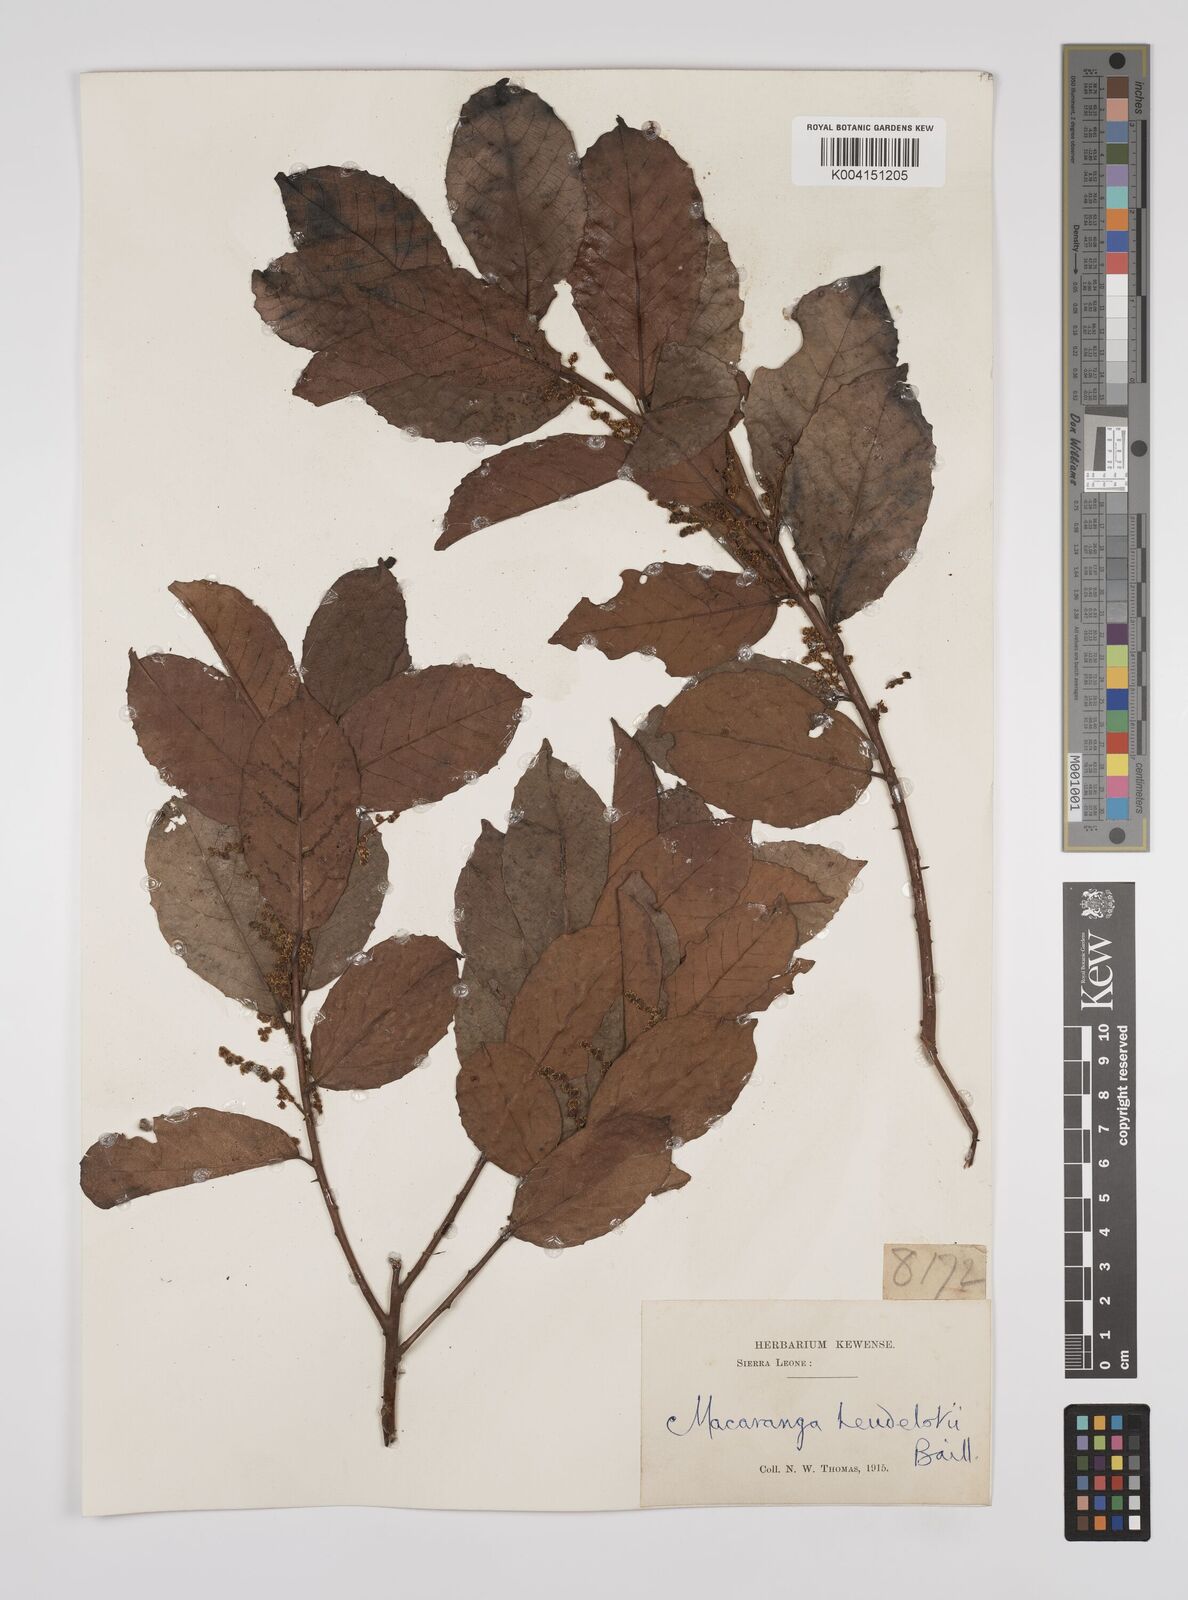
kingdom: Plantae
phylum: Tracheophyta
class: Magnoliopsida
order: Malpighiales
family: Euphorbiaceae
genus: Macaranga
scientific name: Macaranga heudelotii
